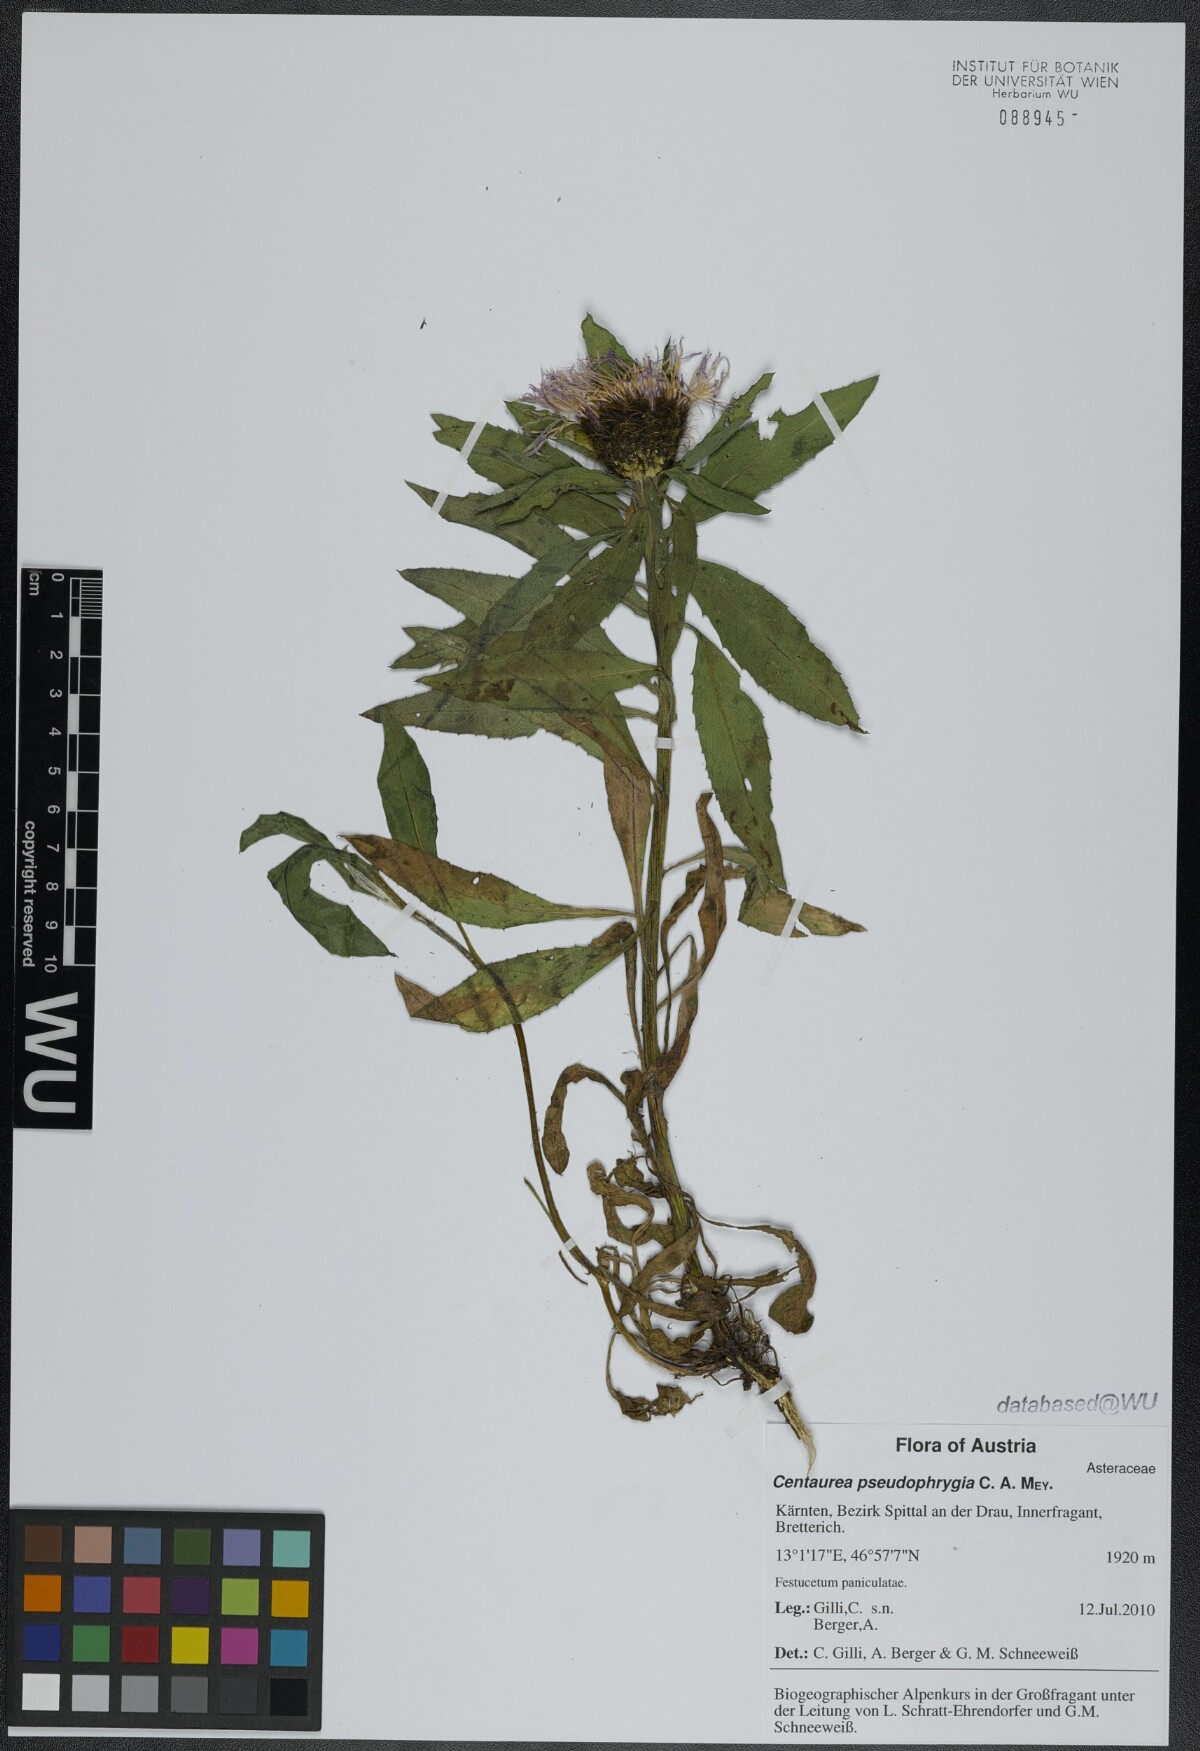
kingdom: Plantae
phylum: Tracheophyta
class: Magnoliopsida
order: Asterales
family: Asteraceae
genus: Centaurea
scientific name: Centaurea pseudophrygia
